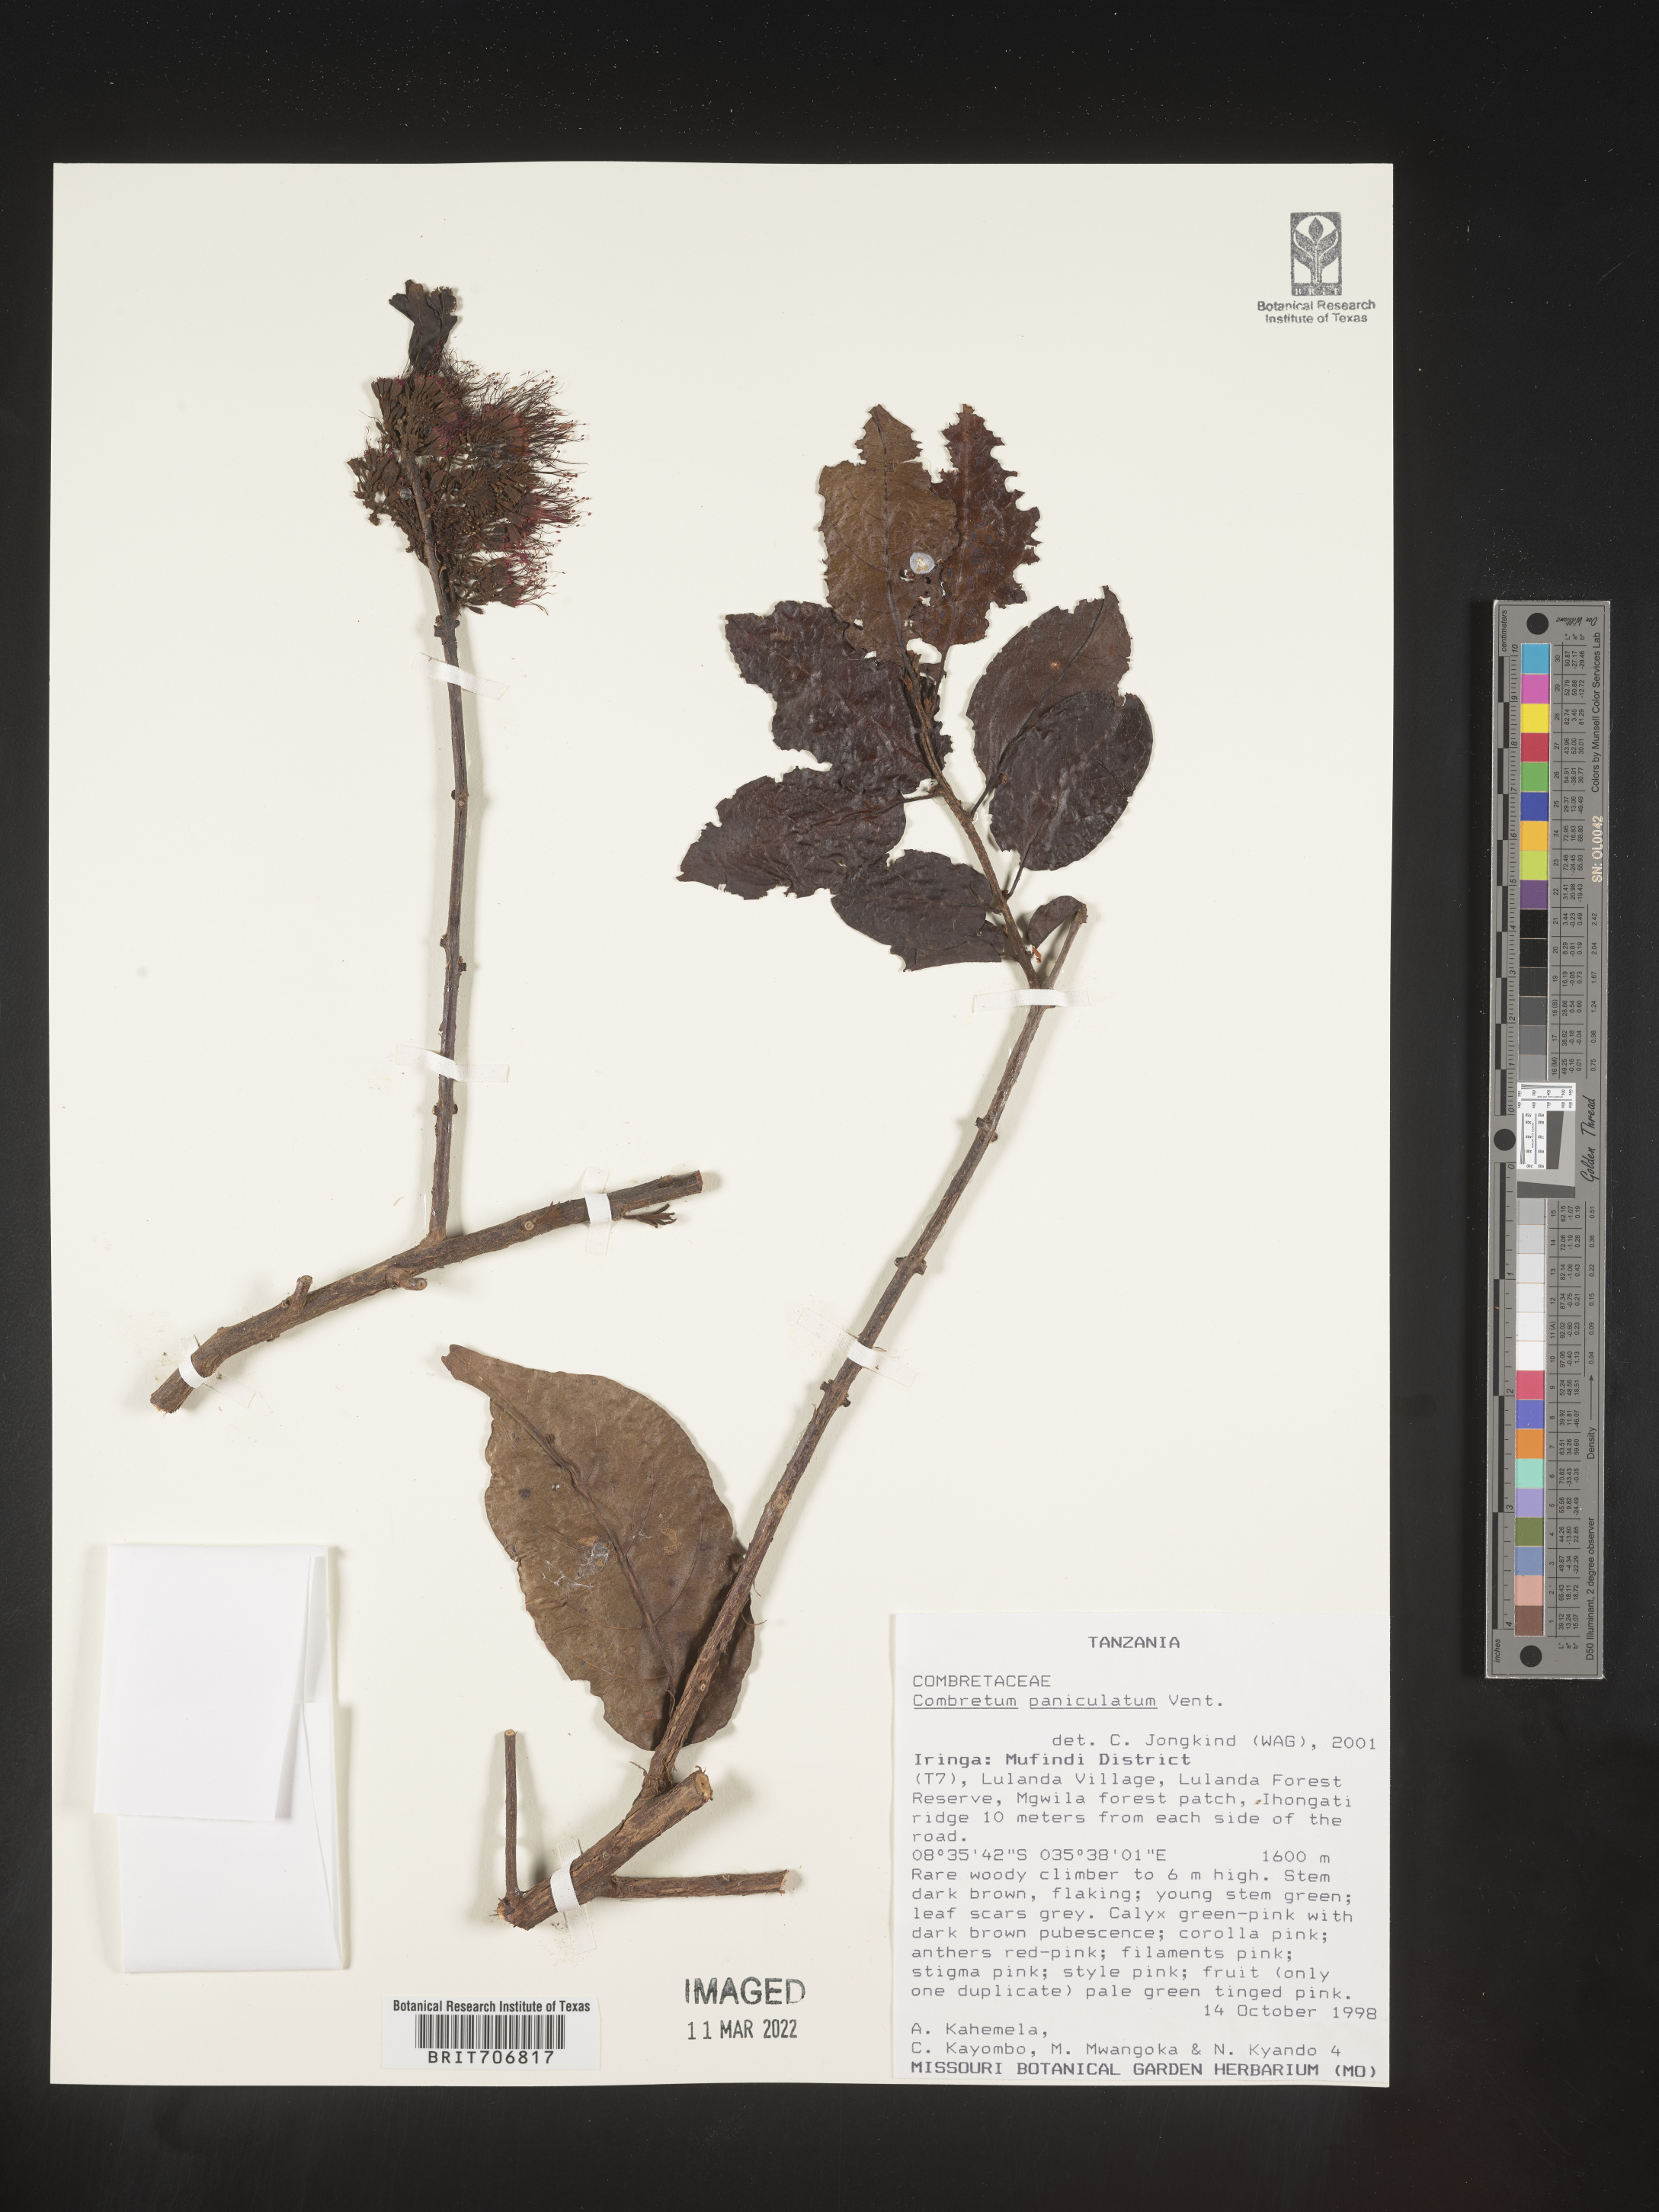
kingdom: Plantae
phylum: Tracheophyta
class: Magnoliopsida
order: Myrtales
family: Combretaceae
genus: Combretum
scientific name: Combretum
